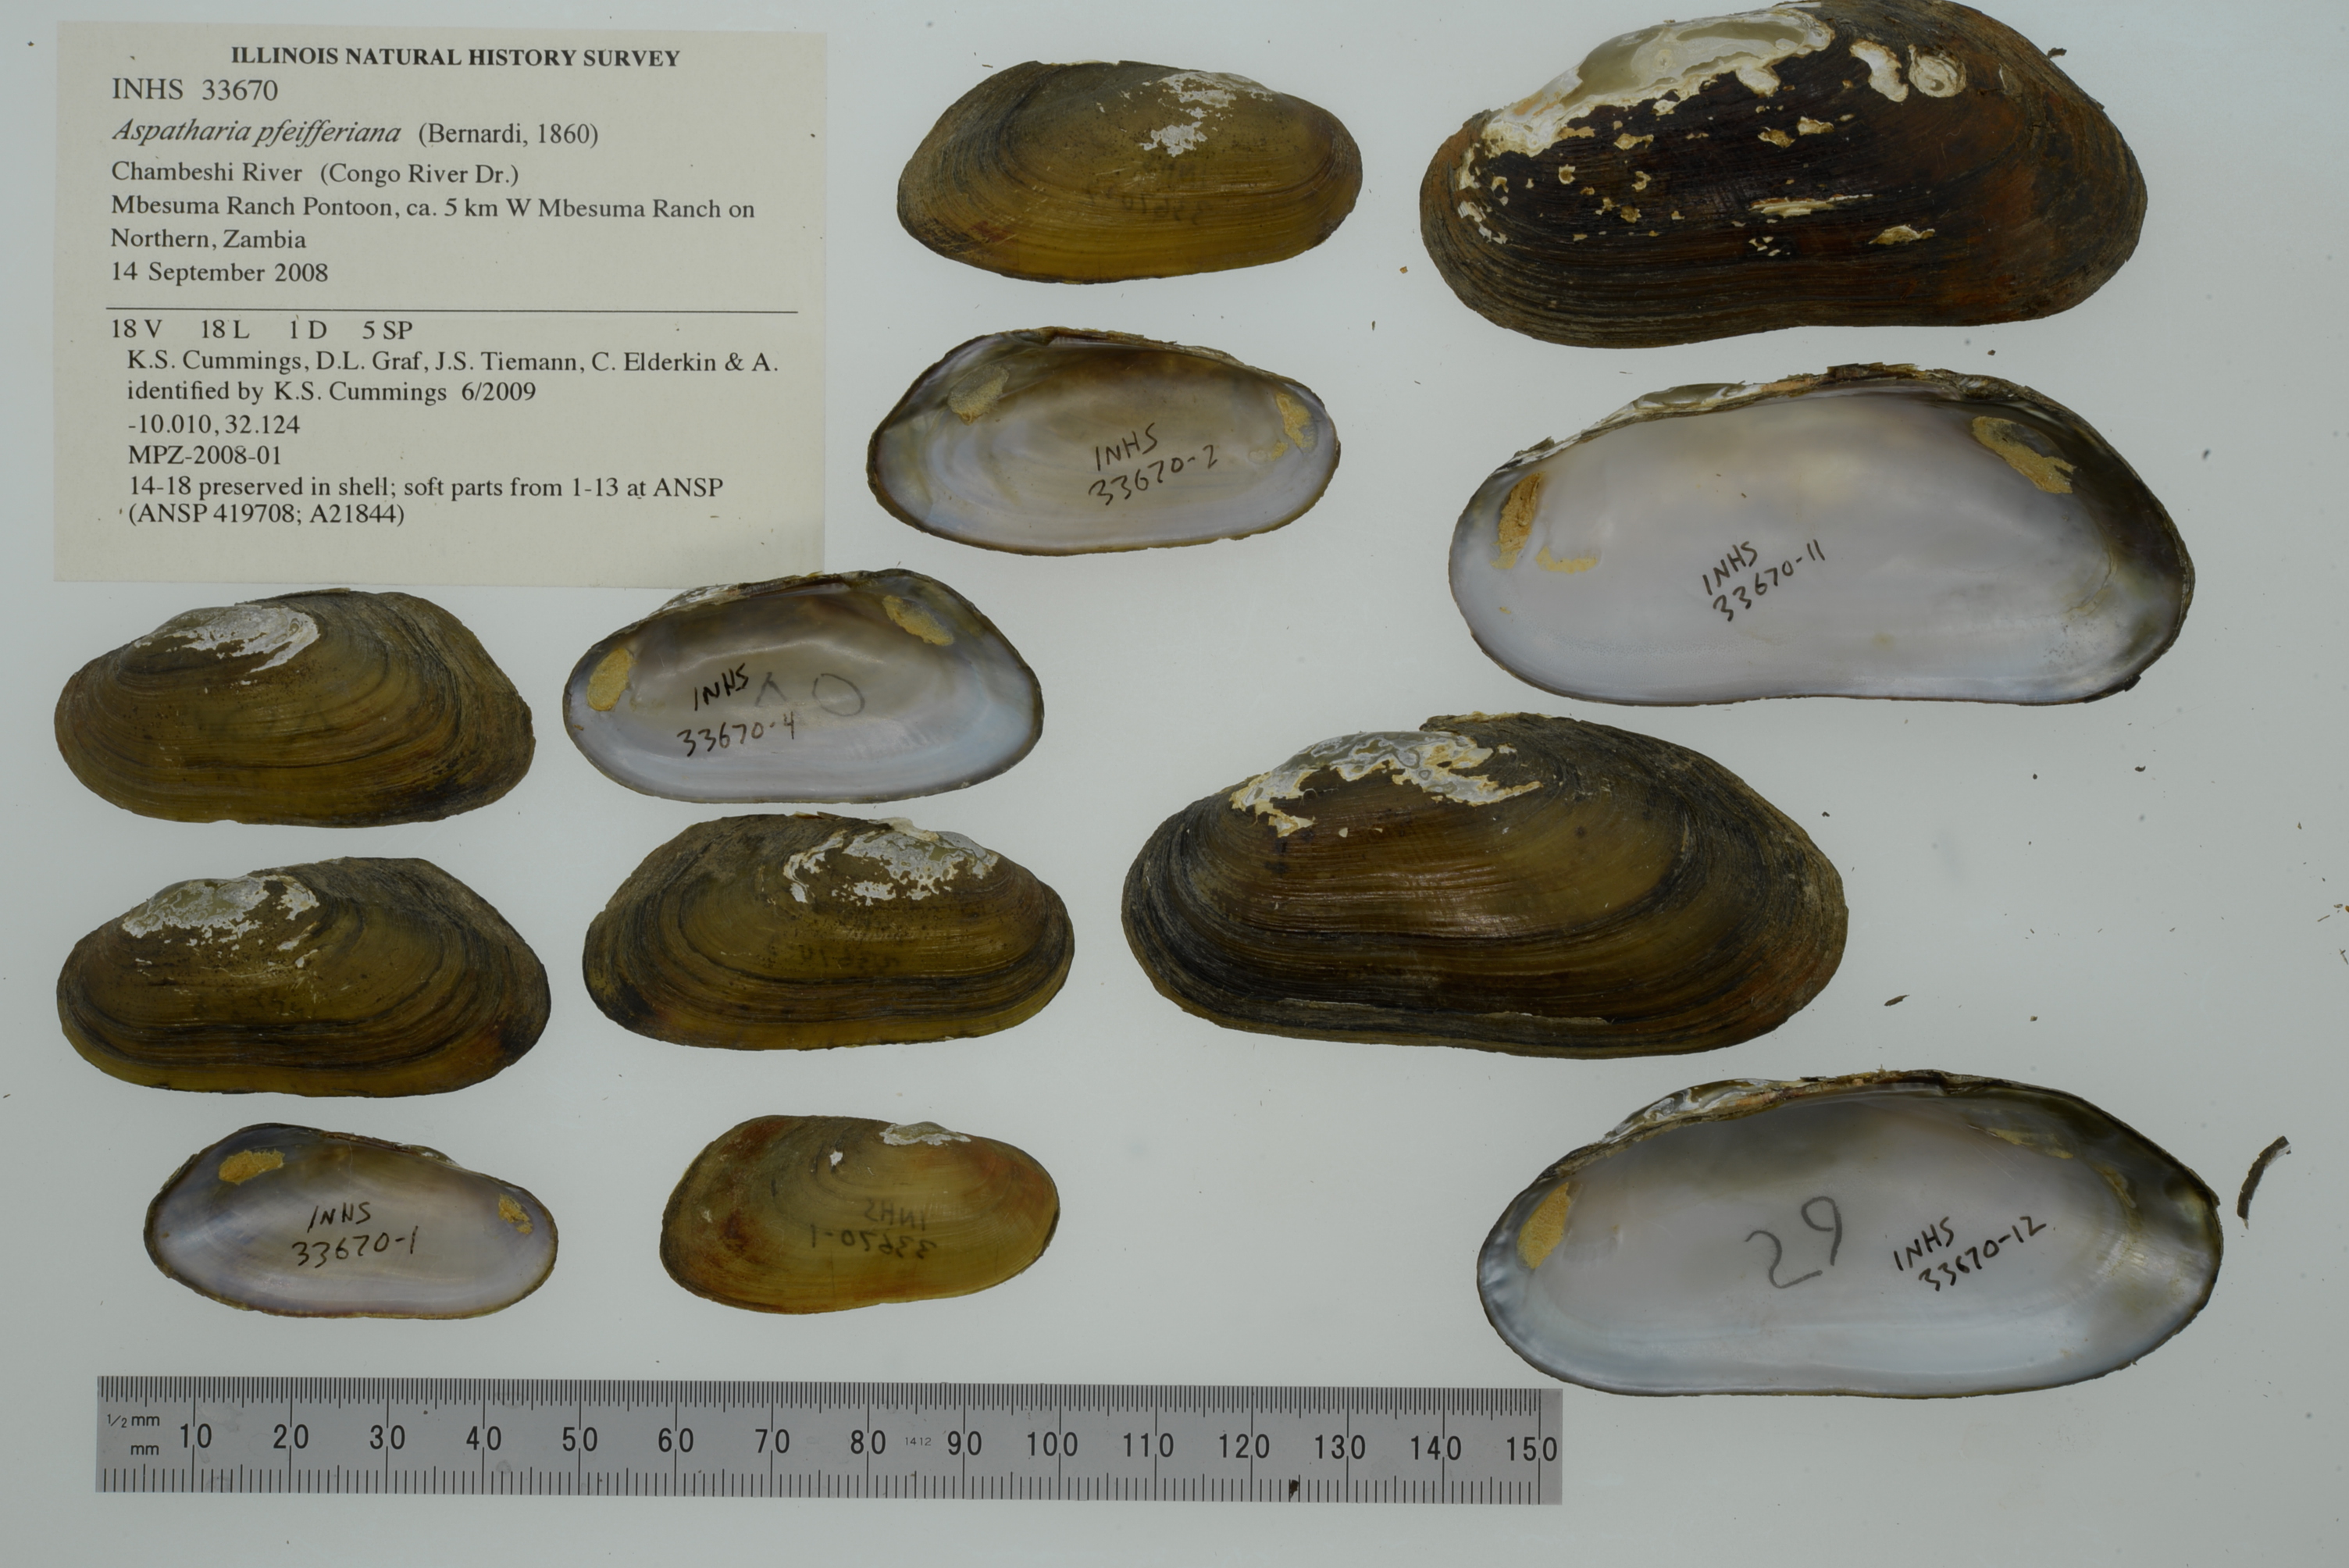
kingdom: Animalia
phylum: Mollusca
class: Bivalvia
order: Unionida
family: Unionidae
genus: Anodontoides
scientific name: Anodontoides ferussacianus
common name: Cylindrical papershell
